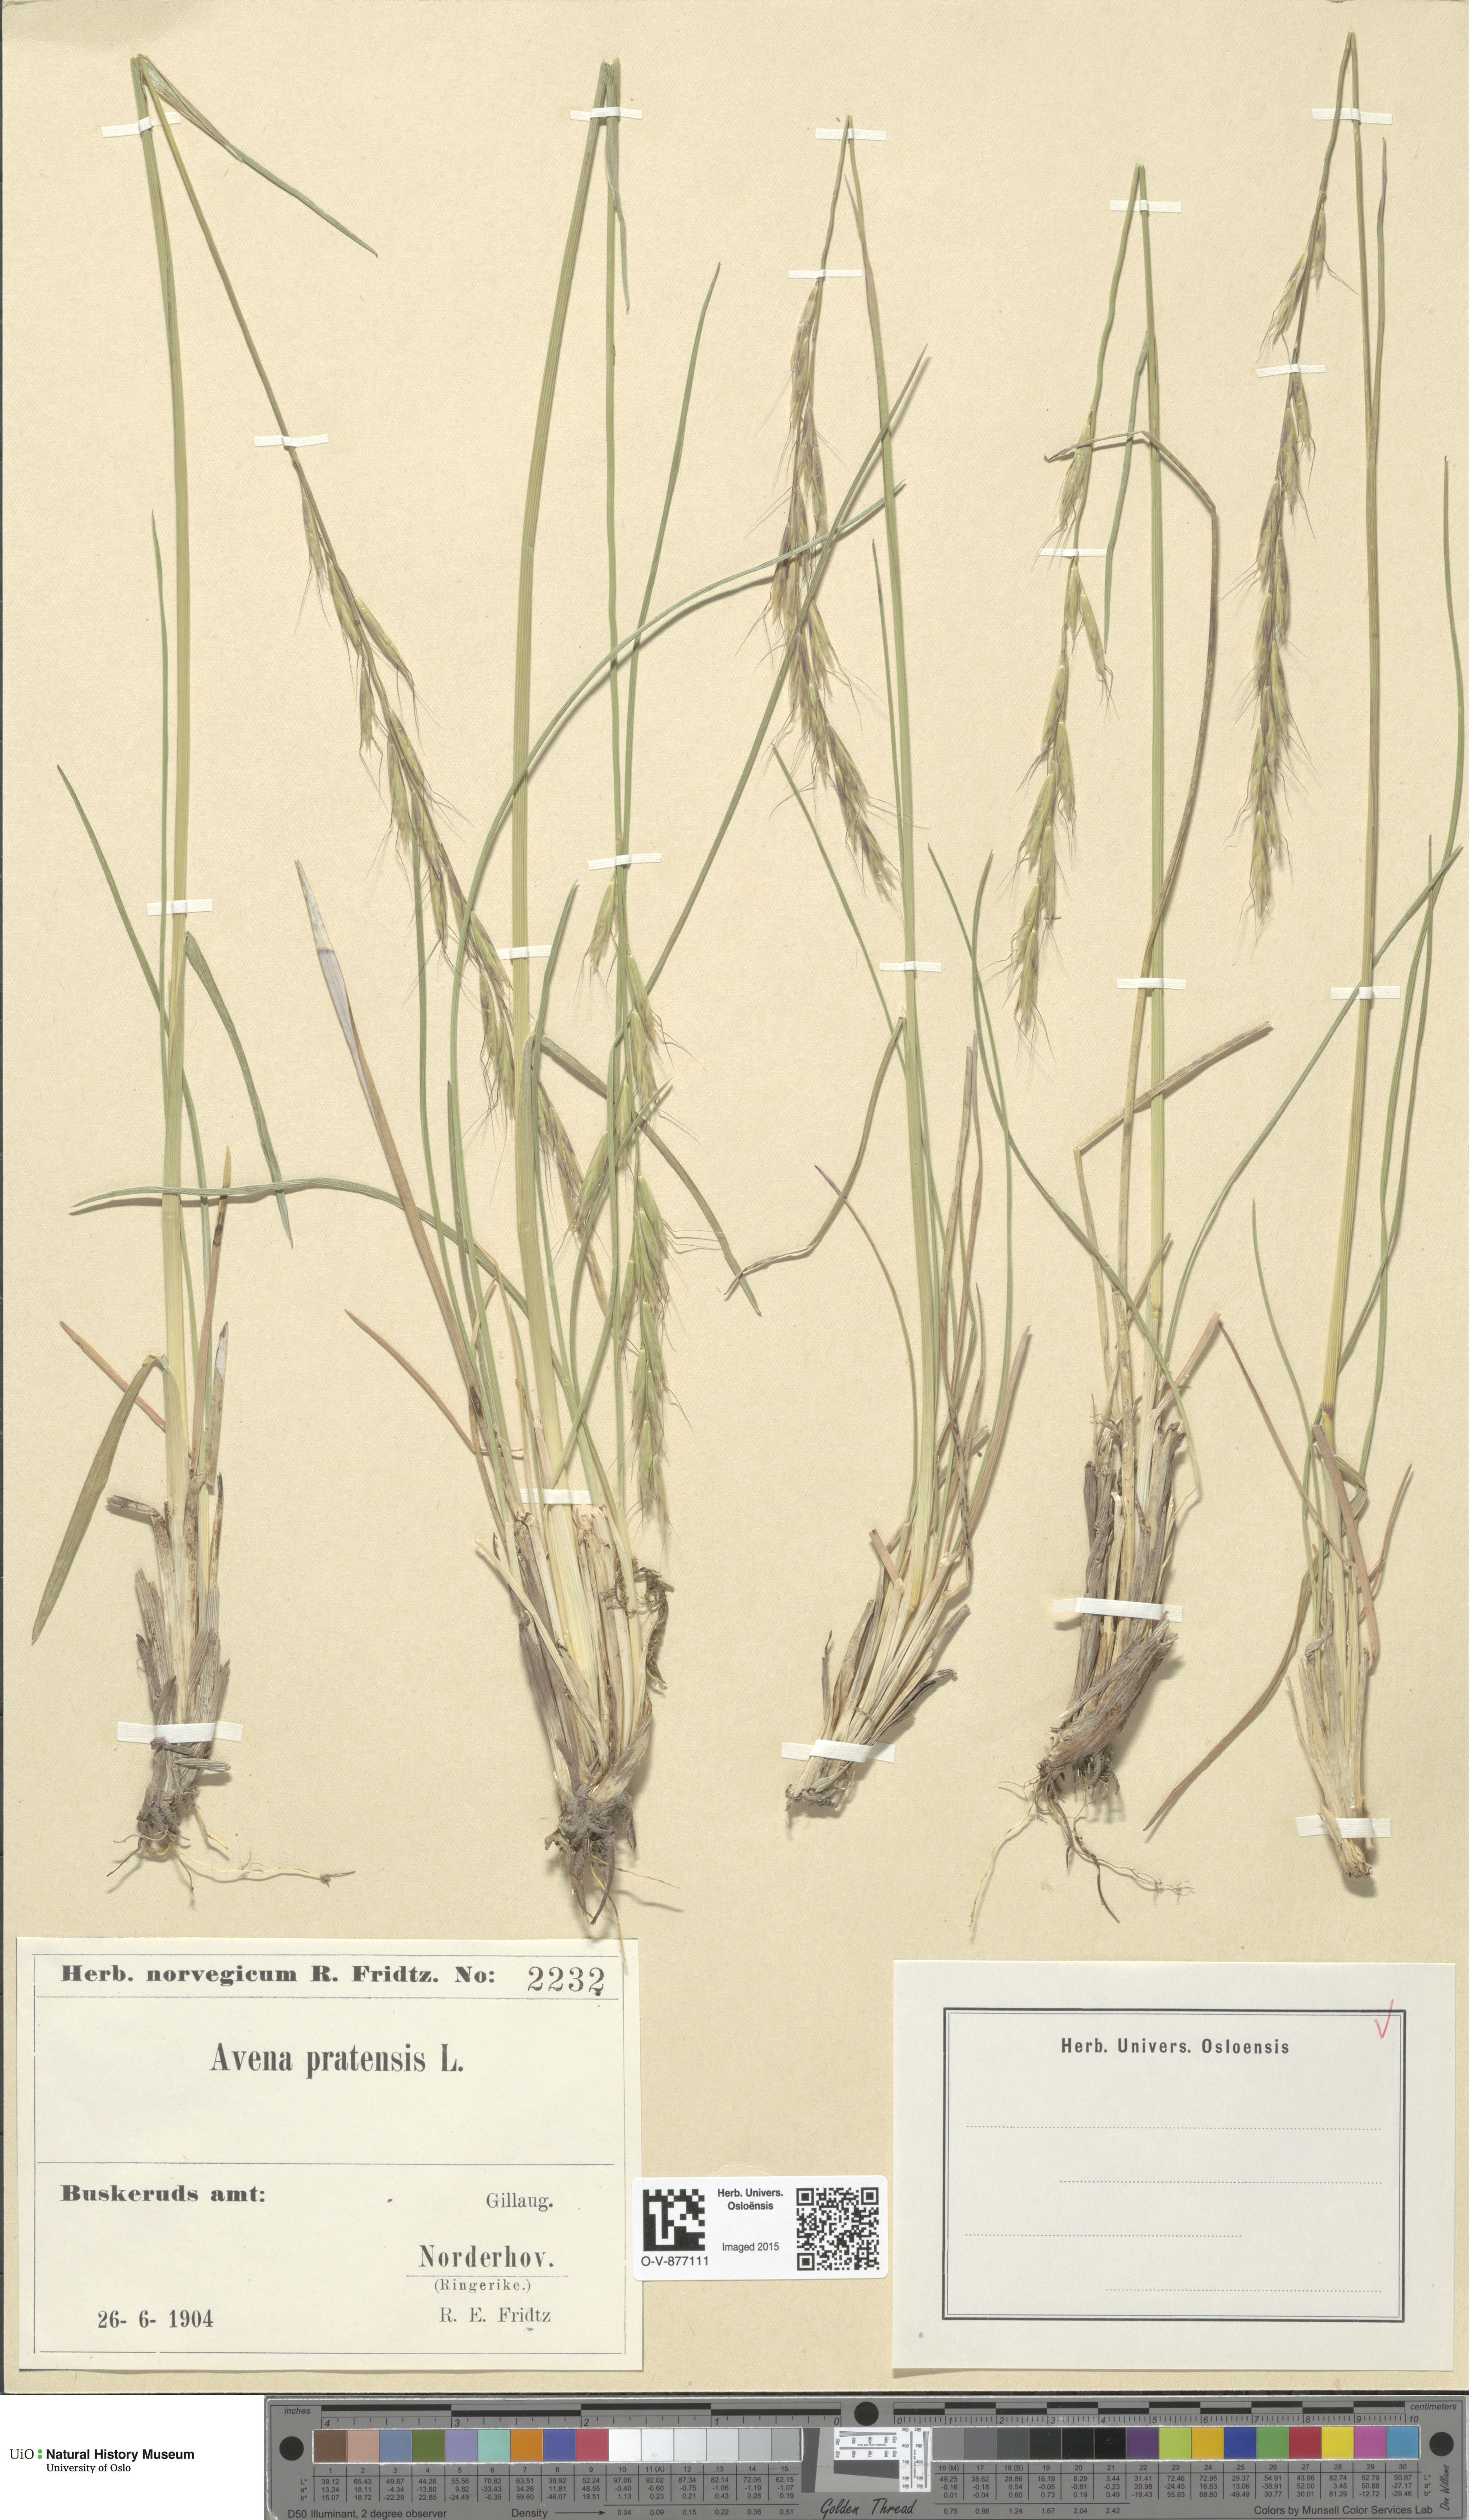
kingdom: Plantae
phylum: Tracheophyta
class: Liliopsida
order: Poales
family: Poaceae
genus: Helictochloa
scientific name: Helictochloa pratensis
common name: Meadow oat grass
